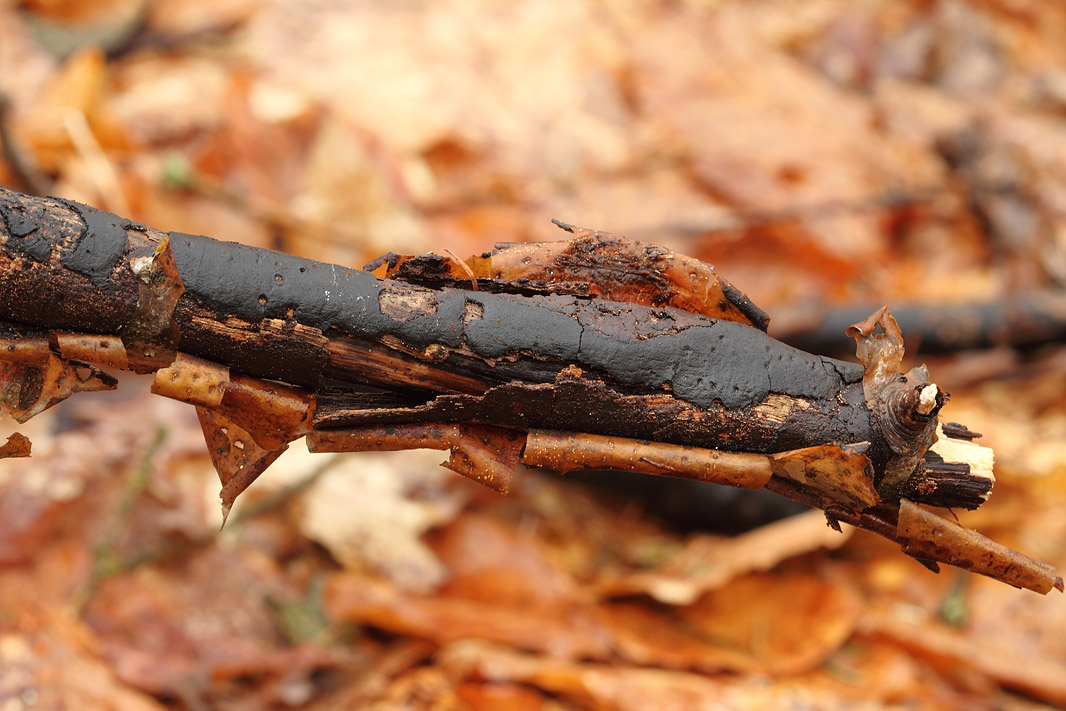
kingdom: Fungi
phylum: Ascomycota
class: Sordariomycetes
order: Xylariales
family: Diatrypaceae
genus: Diatrype
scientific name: Diatrype decorticata
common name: barksprænger-kulskorpe
